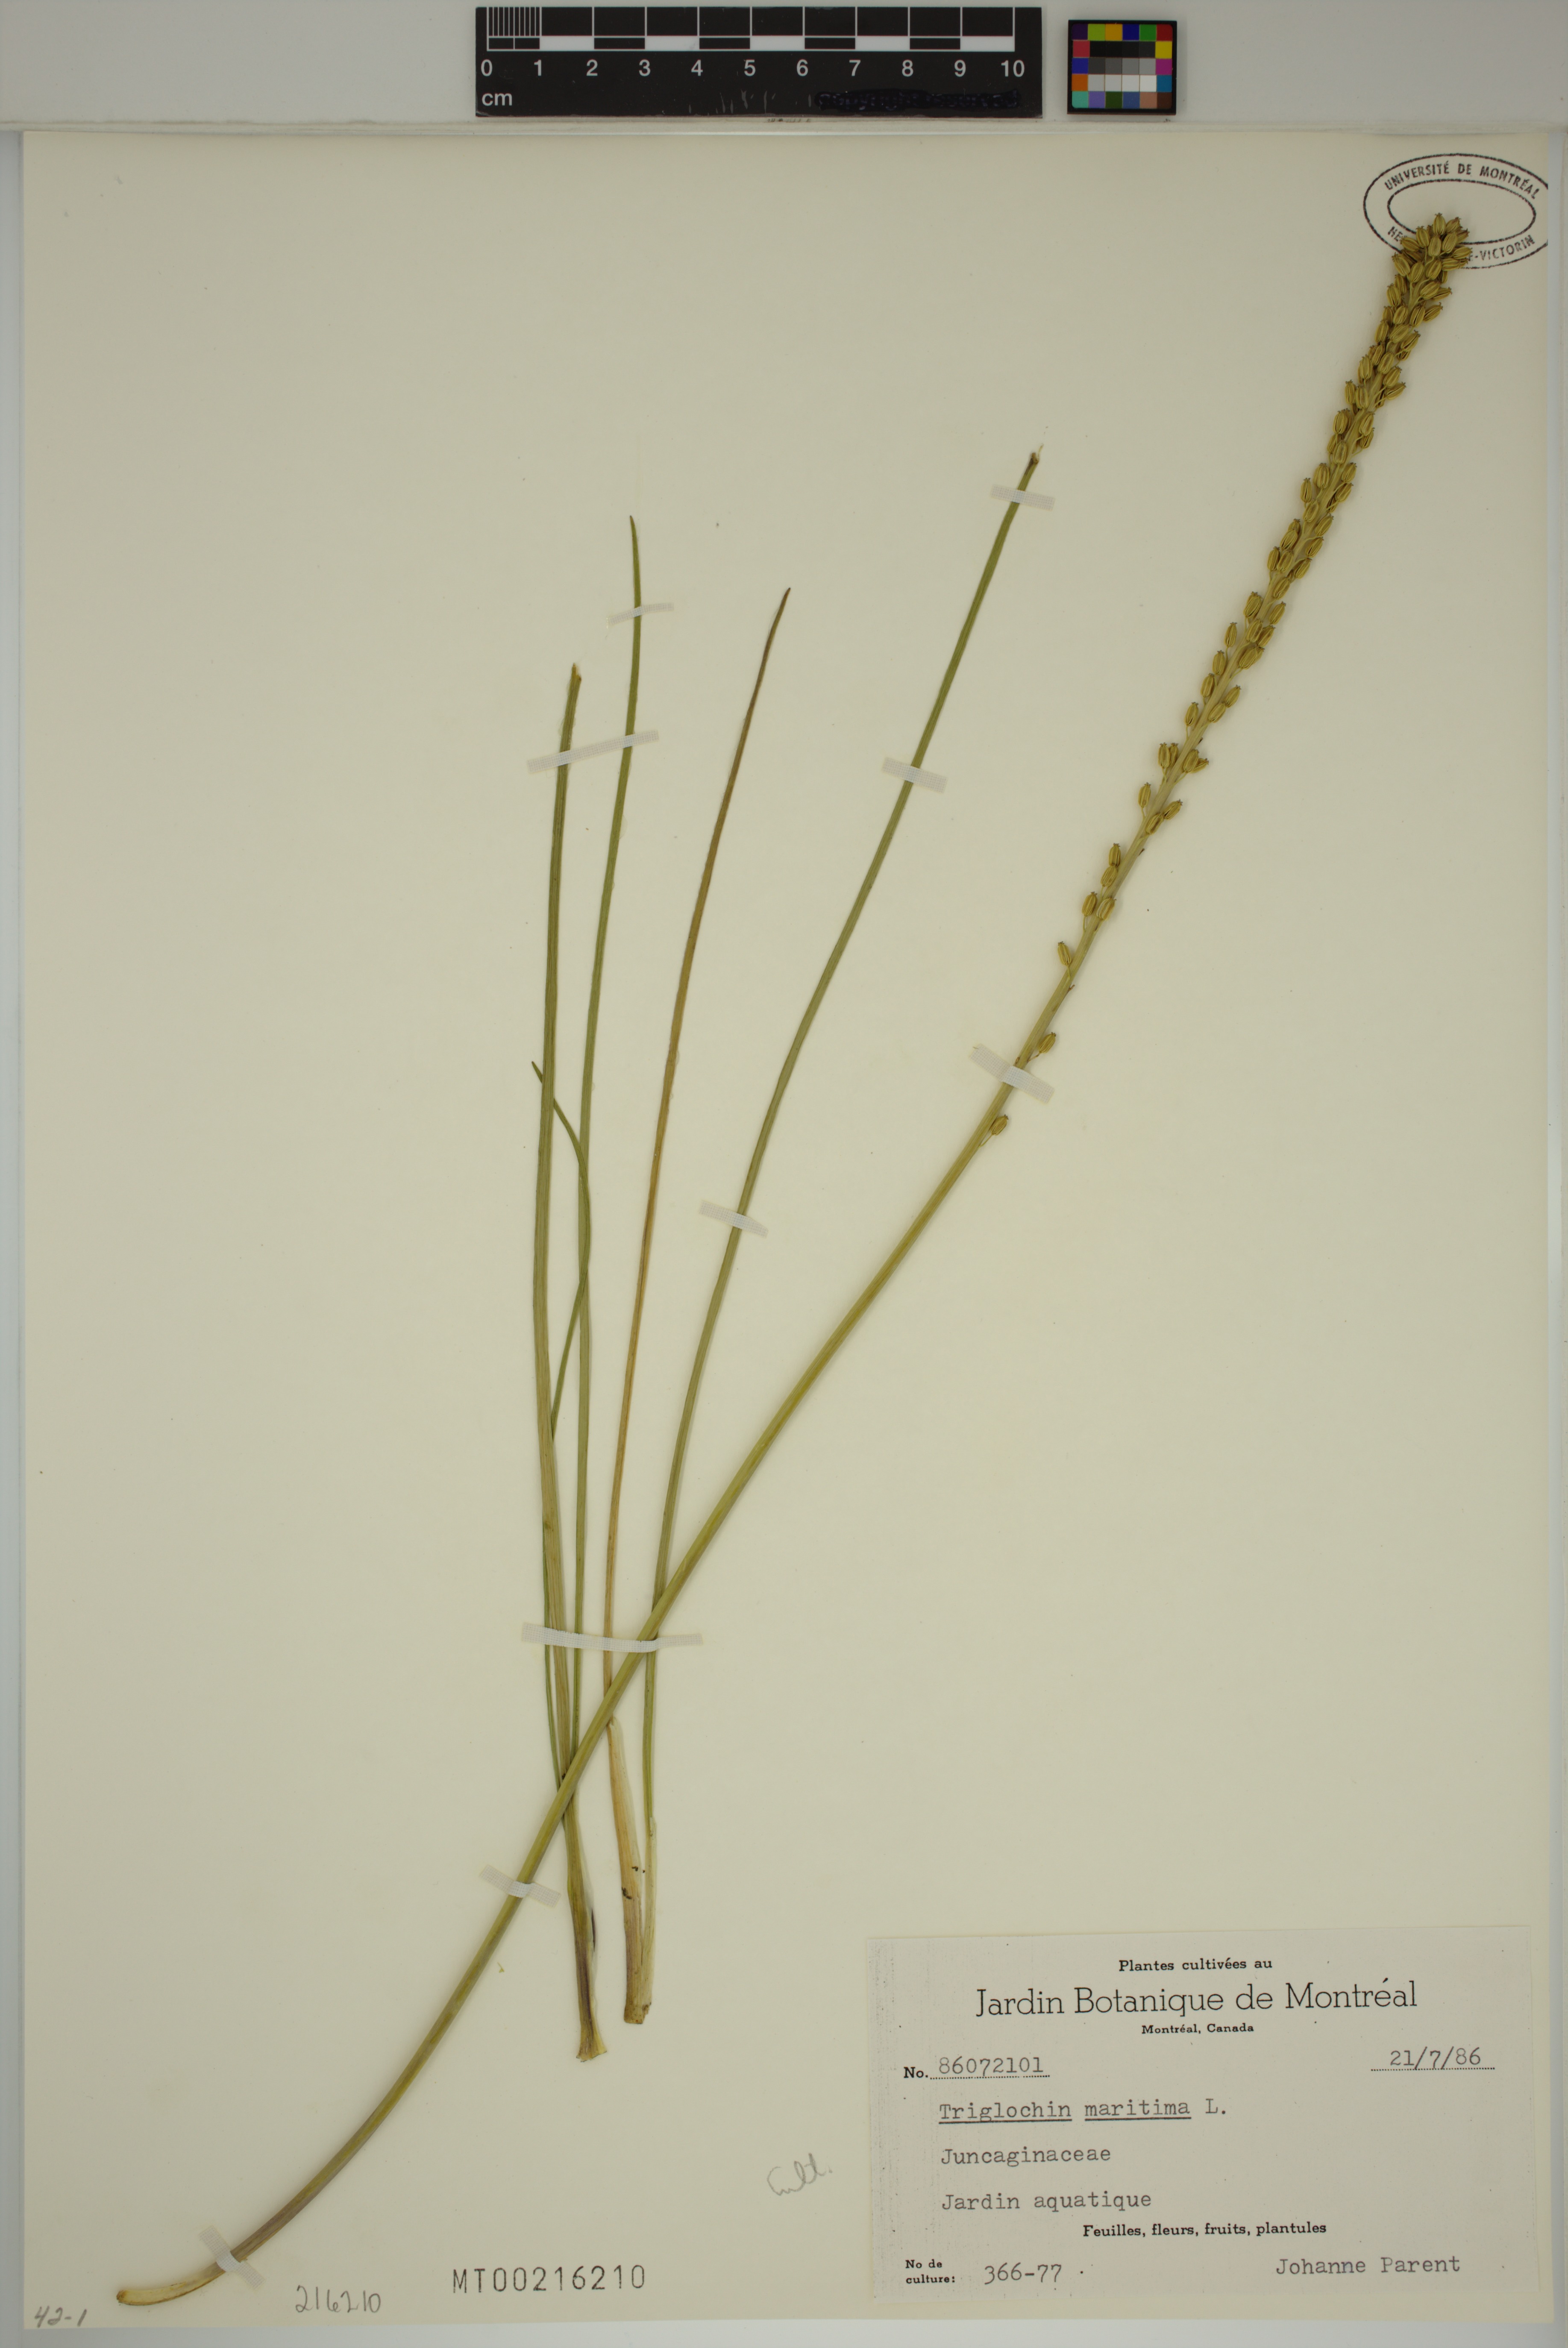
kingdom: Plantae
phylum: Tracheophyta
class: Liliopsida
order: Alismatales
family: Juncaginaceae
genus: Triglochin
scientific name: Triglochin maritima
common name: Sea arrowgrass
